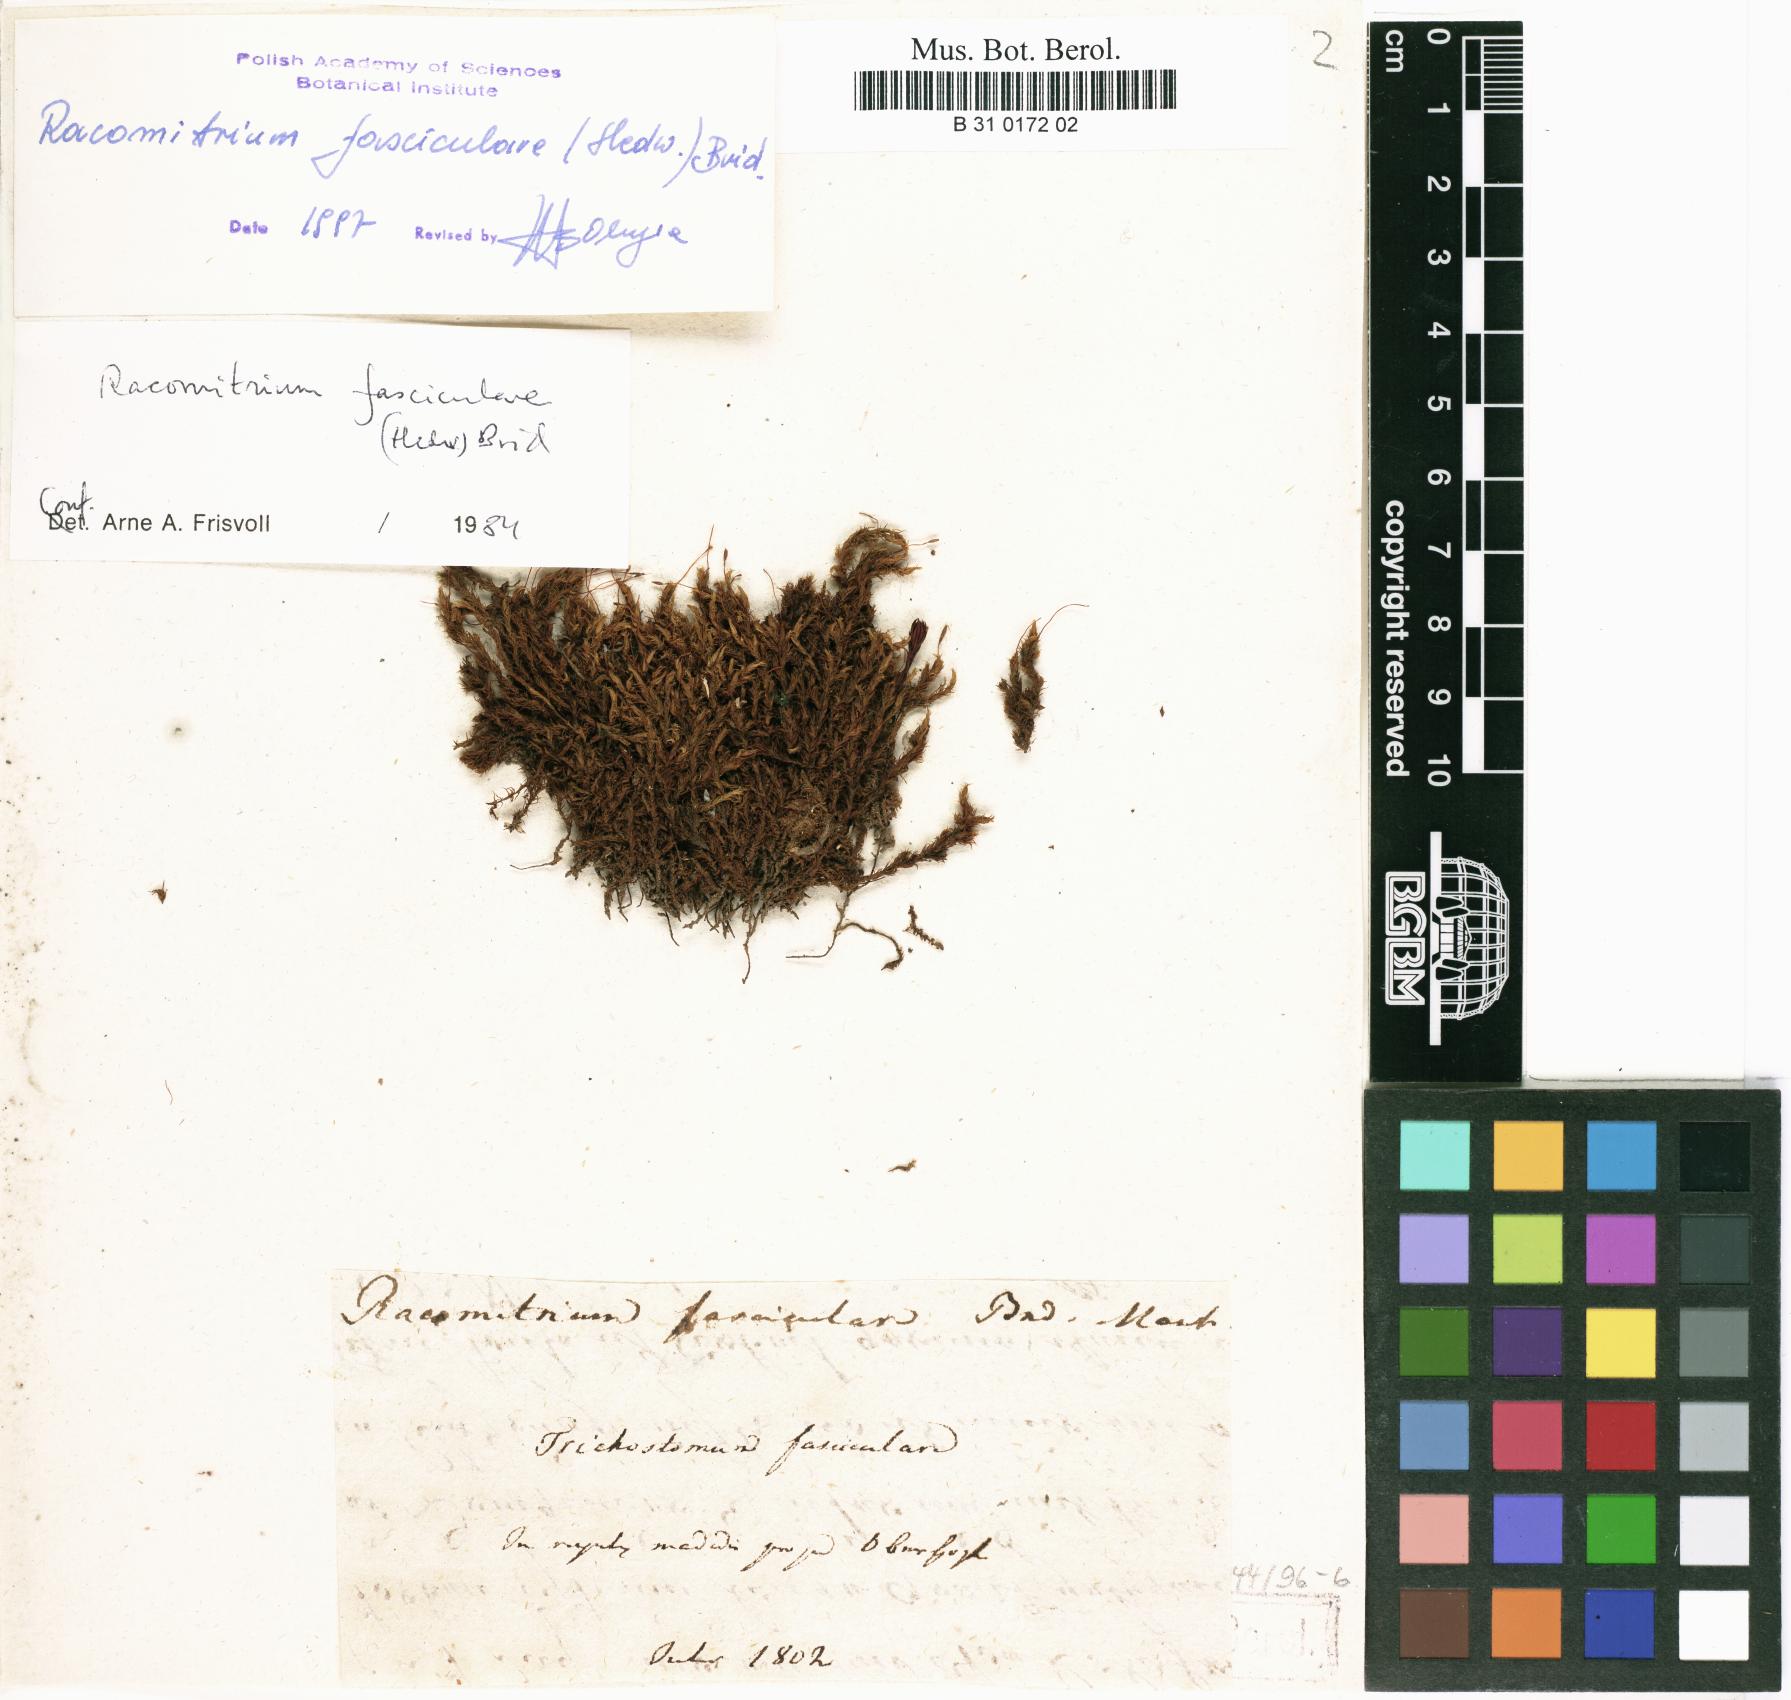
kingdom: Plantae
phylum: Bryophyta
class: Bryopsida
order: Grimmiales
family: Grimmiaceae
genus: Dilutineuron
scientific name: Dilutineuron fasciculare
